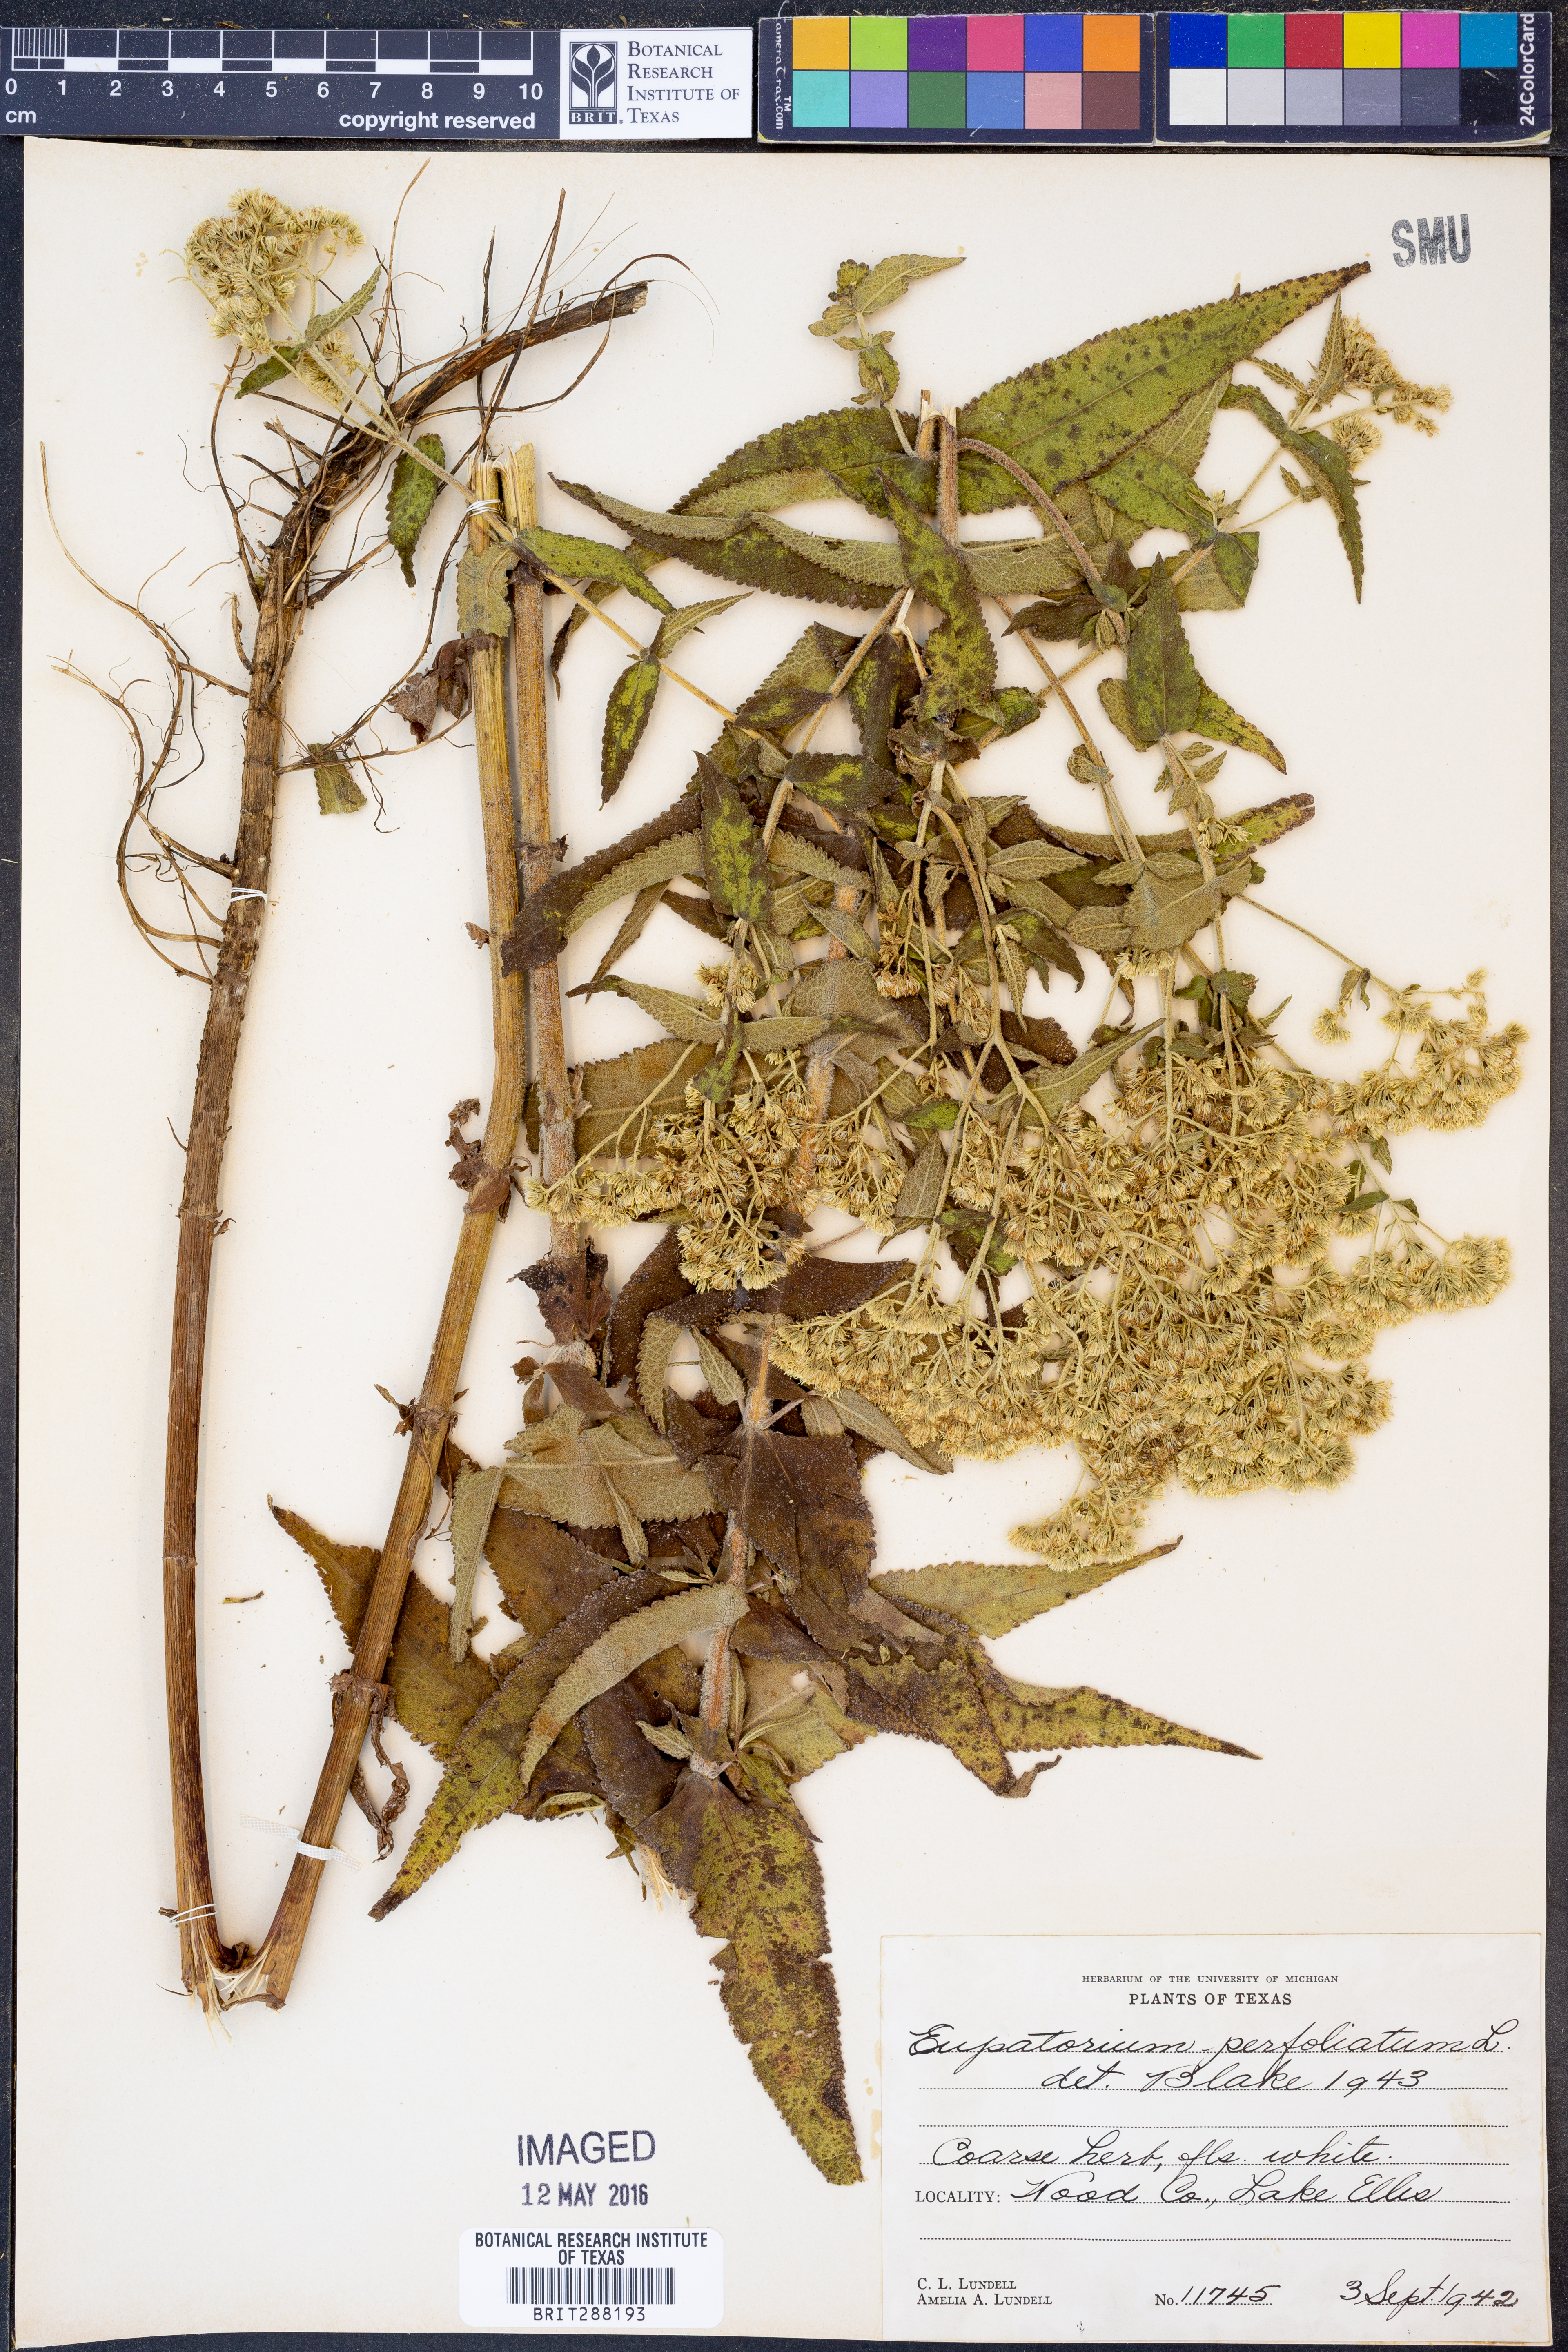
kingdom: Plantae
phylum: Tracheophyta
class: Magnoliopsida
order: Asterales
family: Asteraceae
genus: Eupatorium
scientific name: Eupatorium perfoliatum
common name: Boneset
